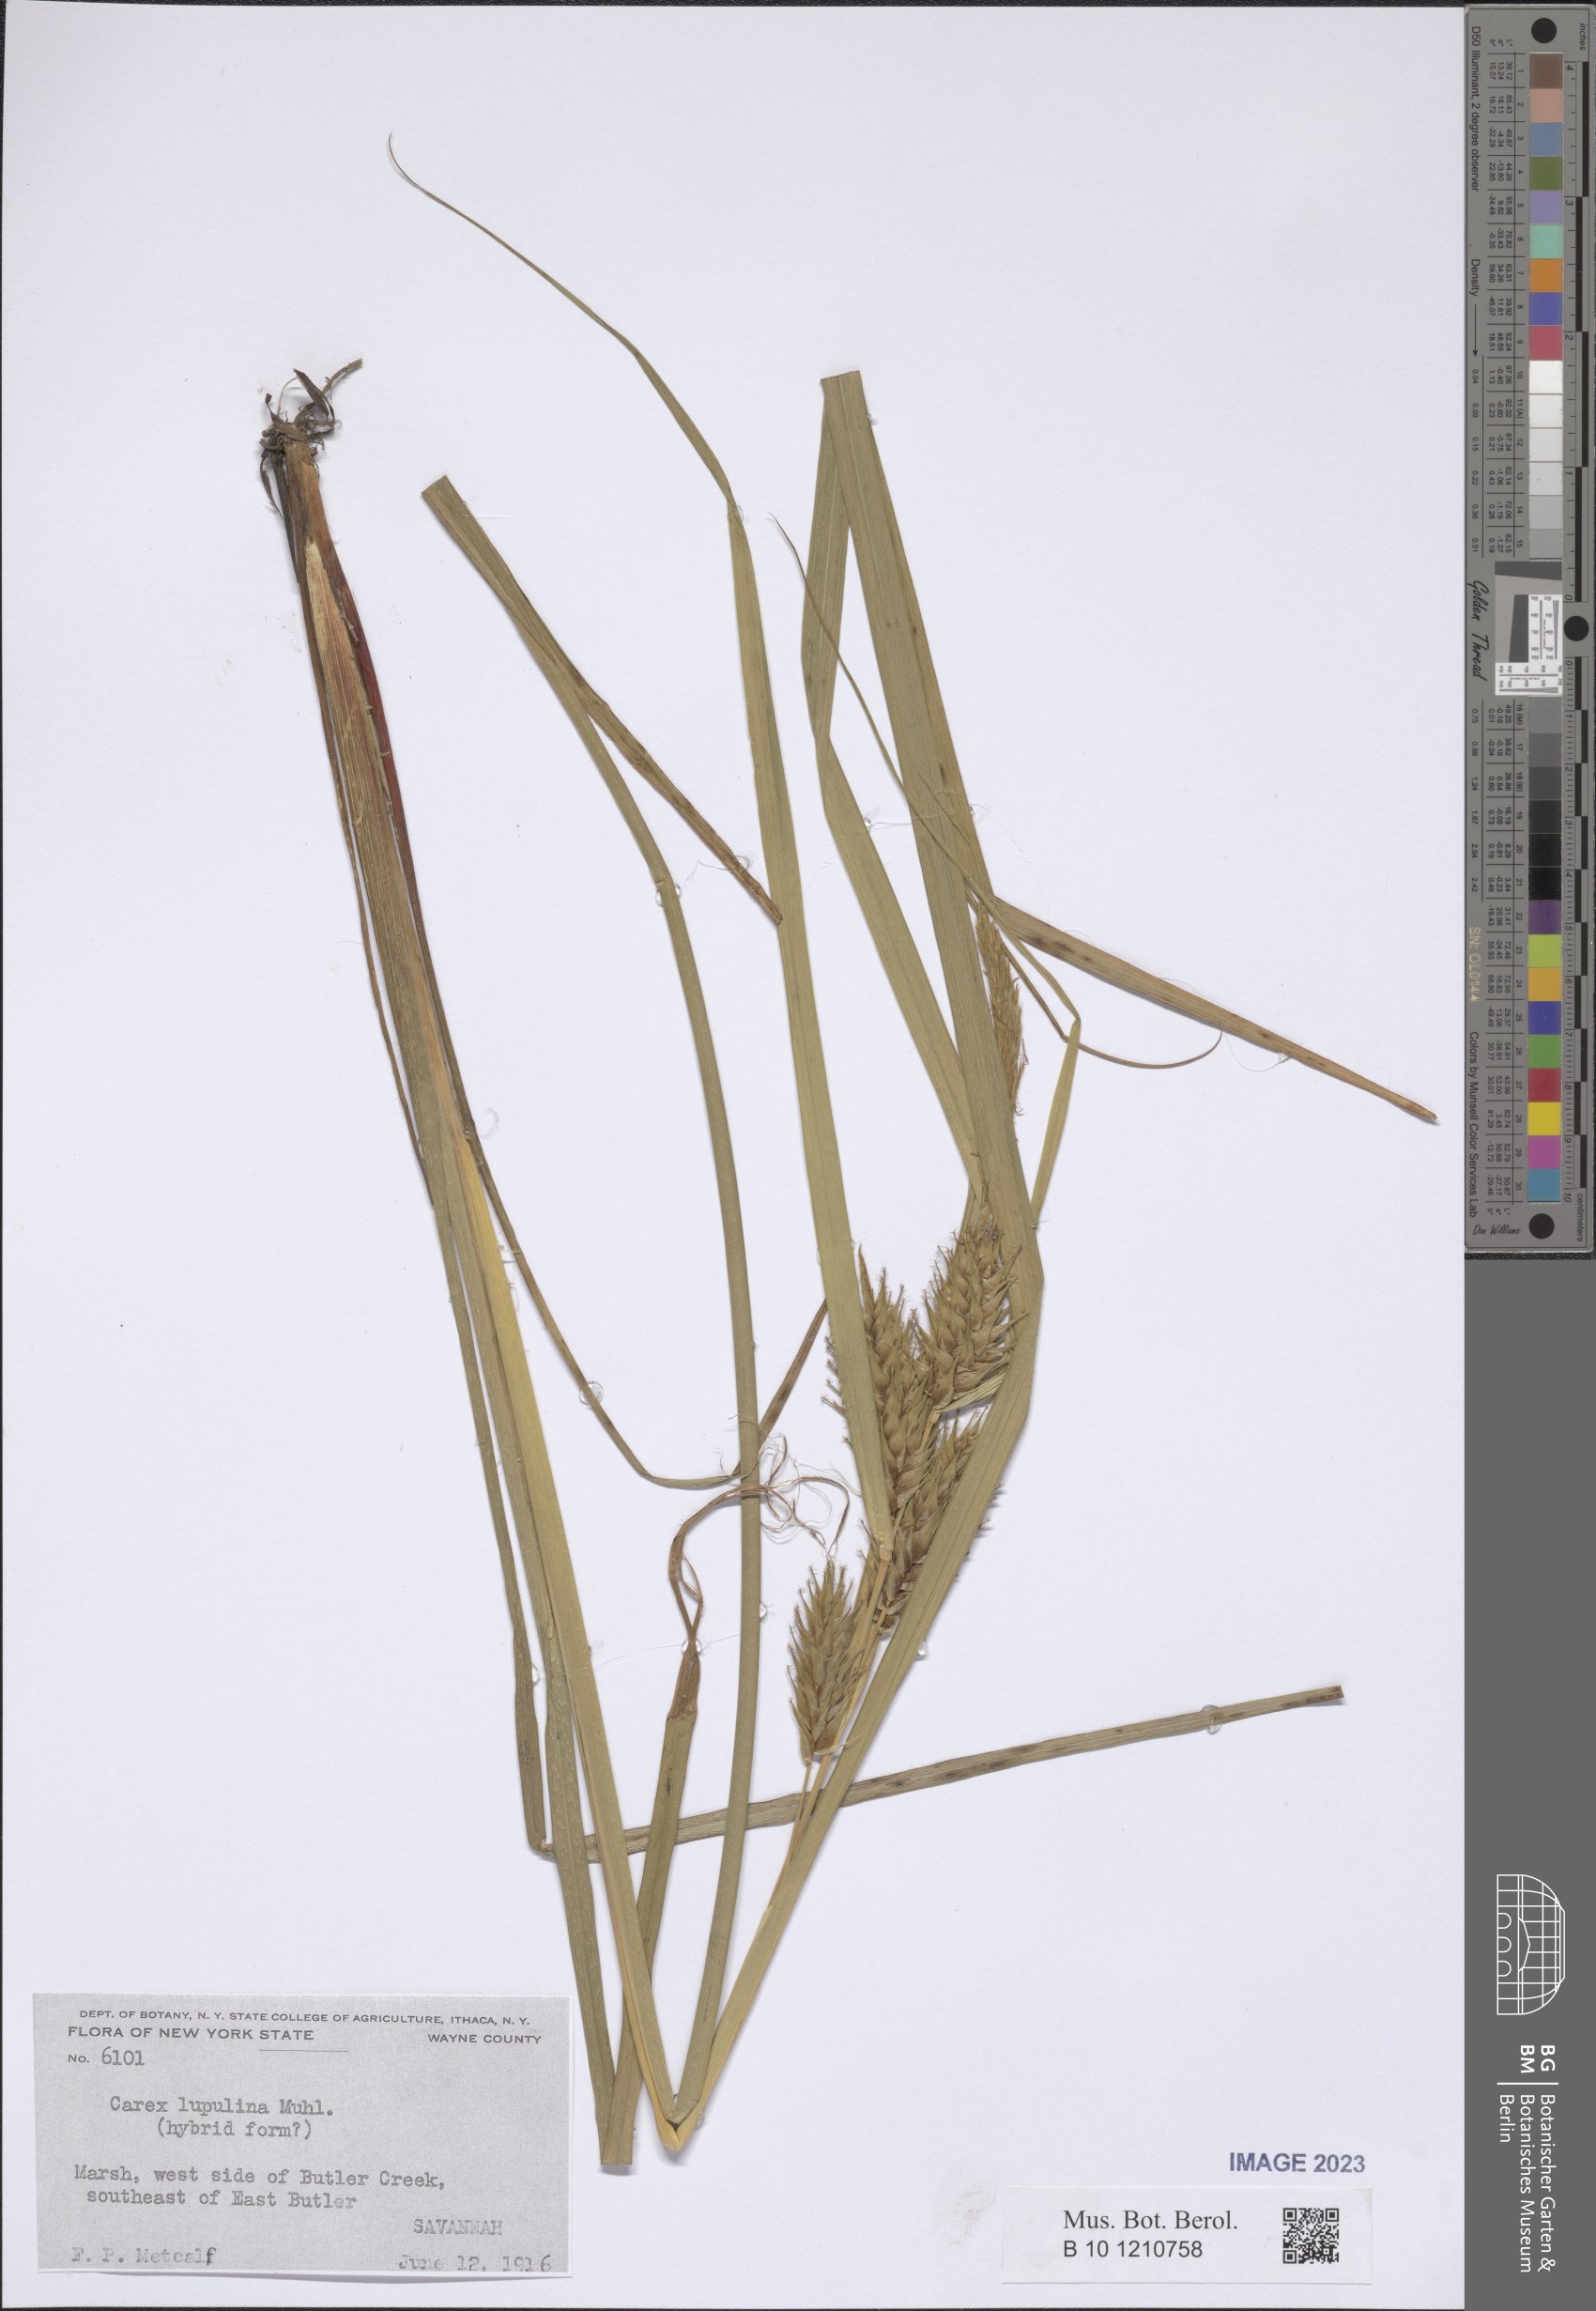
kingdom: Plantae
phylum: Tracheophyta
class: Liliopsida
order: Poales
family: Cyperaceae
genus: Carex
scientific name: Carex lupulina
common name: Hop sedge
